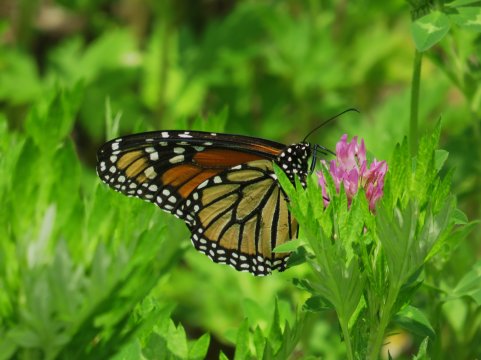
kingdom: Animalia
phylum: Arthropoda
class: Insecta
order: Lepidoptera
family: Nymphalidae
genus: Danaus
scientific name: Danaus plexippus
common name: Monarch
